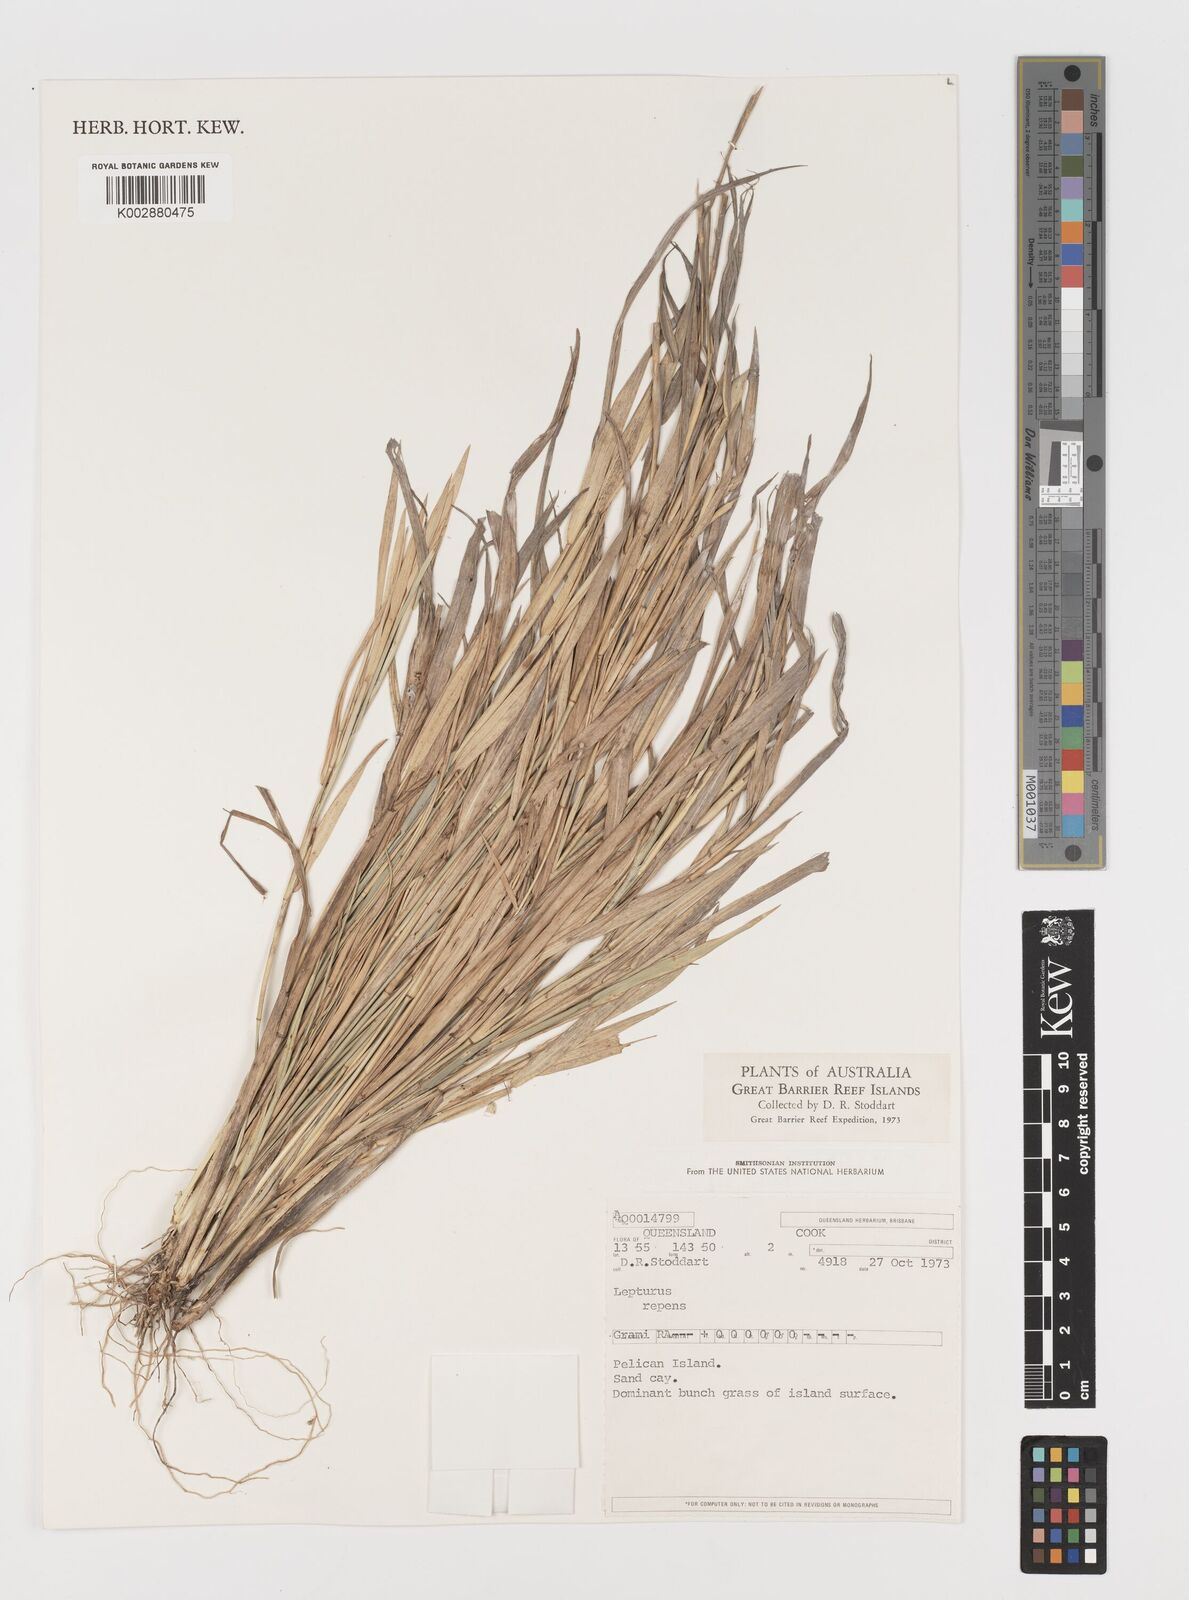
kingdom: Plantae
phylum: Tracheophyta
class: Liliopsida
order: Poales
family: Poaceae
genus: Lepturus
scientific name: Lepturus repens
